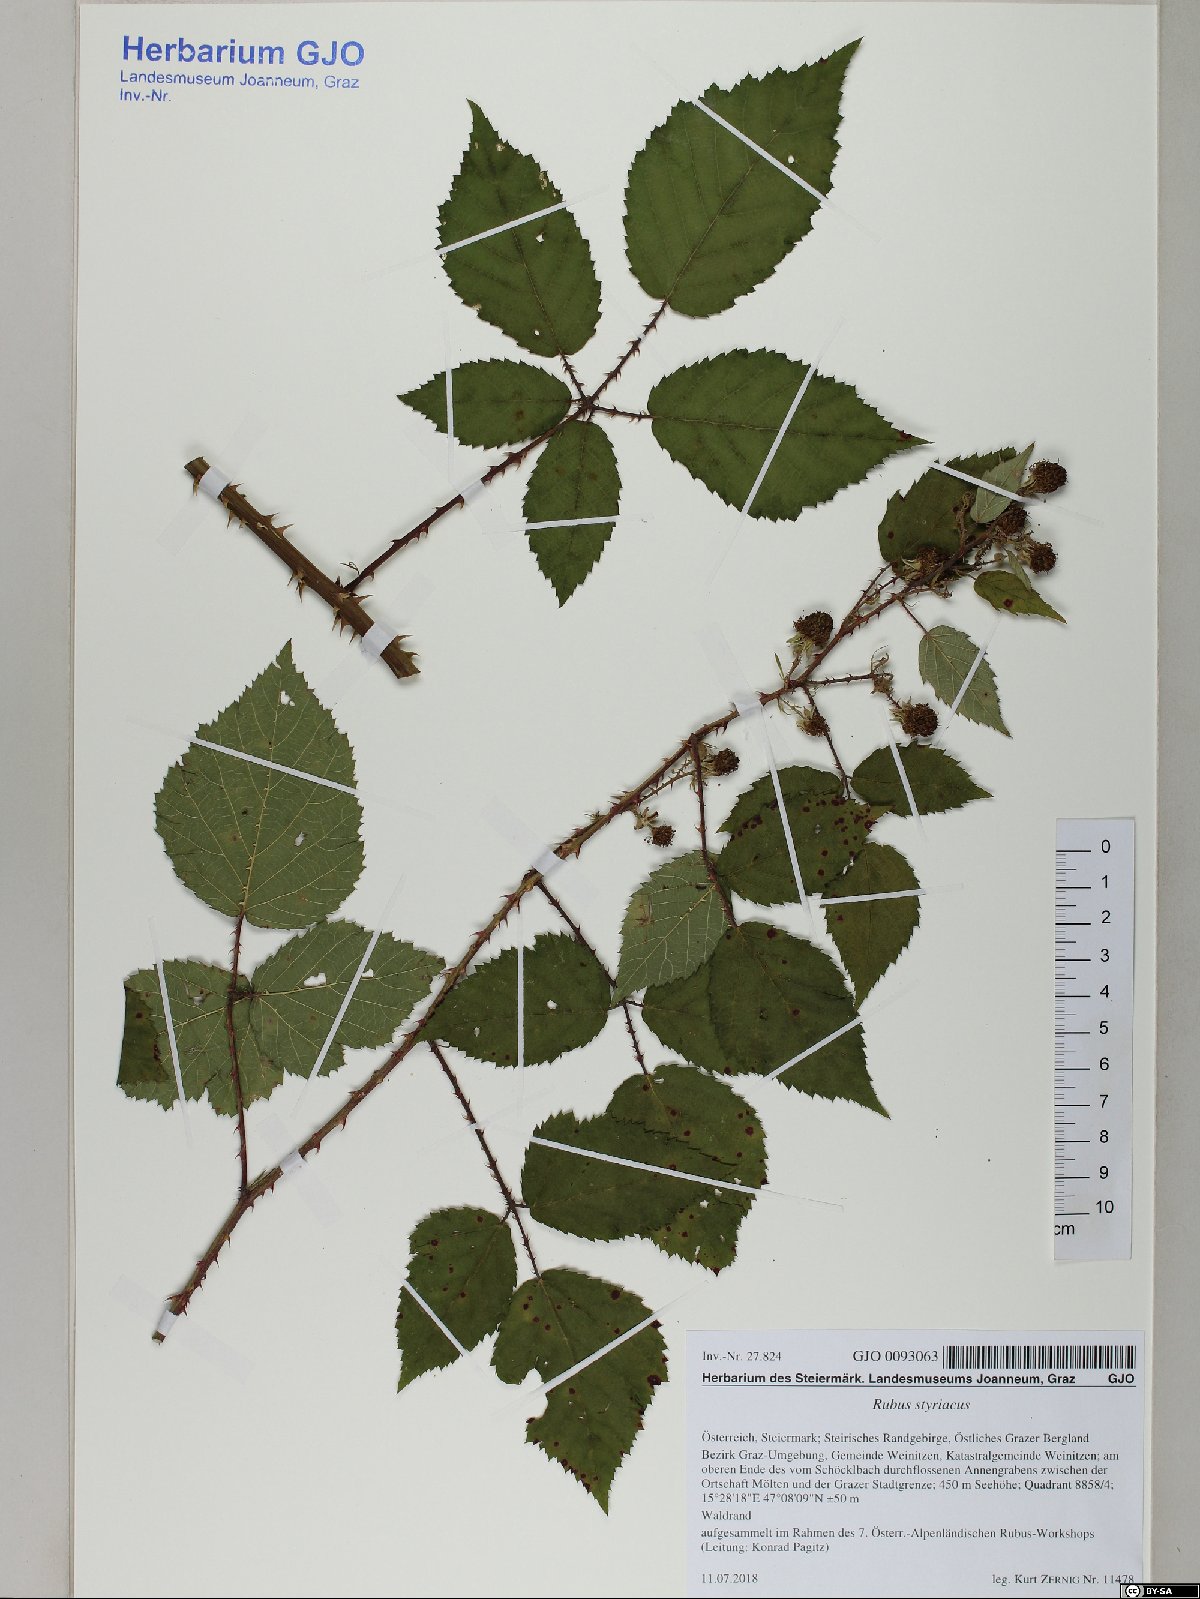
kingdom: Plantae
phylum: Tracheophyta
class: Magnoliopsida
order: Rosales
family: Rosaceae
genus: Rubus
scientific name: Rubus styriacus
